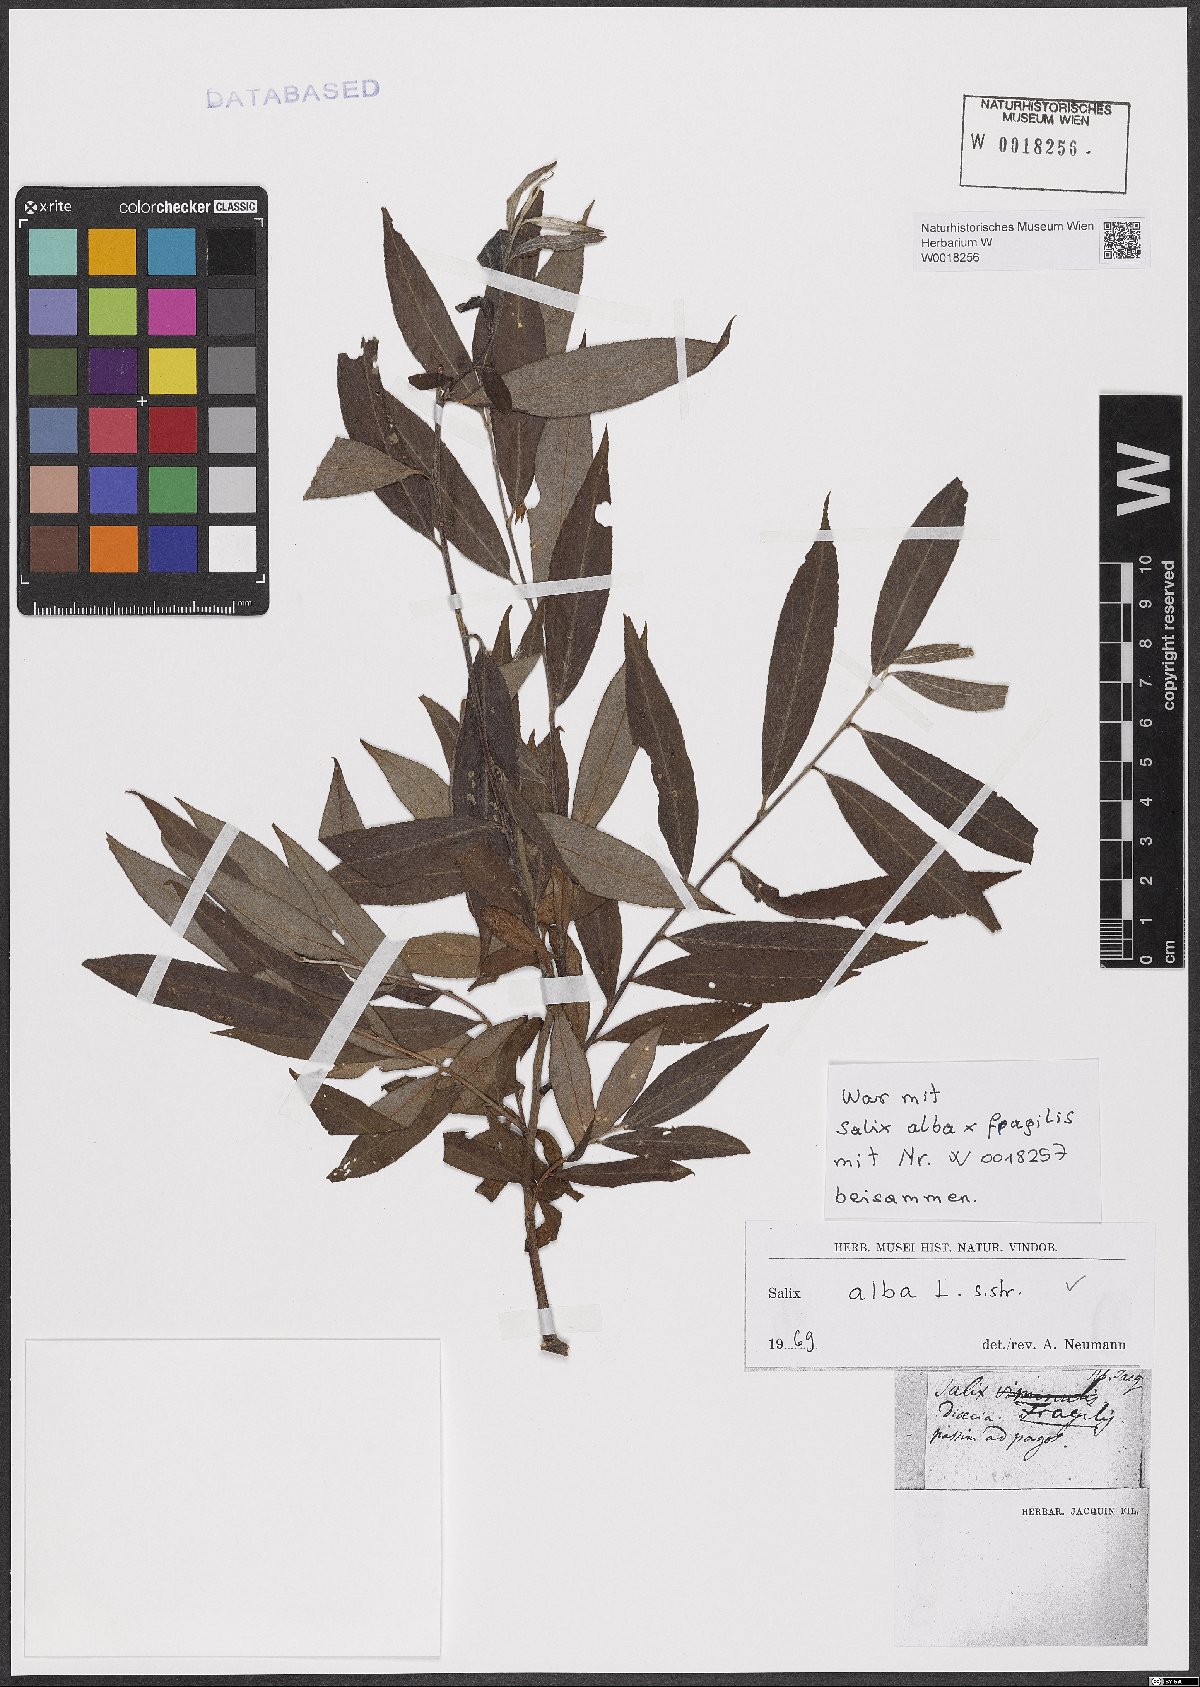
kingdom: Plantae
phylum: Tracheophyta
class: Magnoliopsida
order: Malpighiales
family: Salicaceae
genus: Salix
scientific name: Salix alba
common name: White willow
